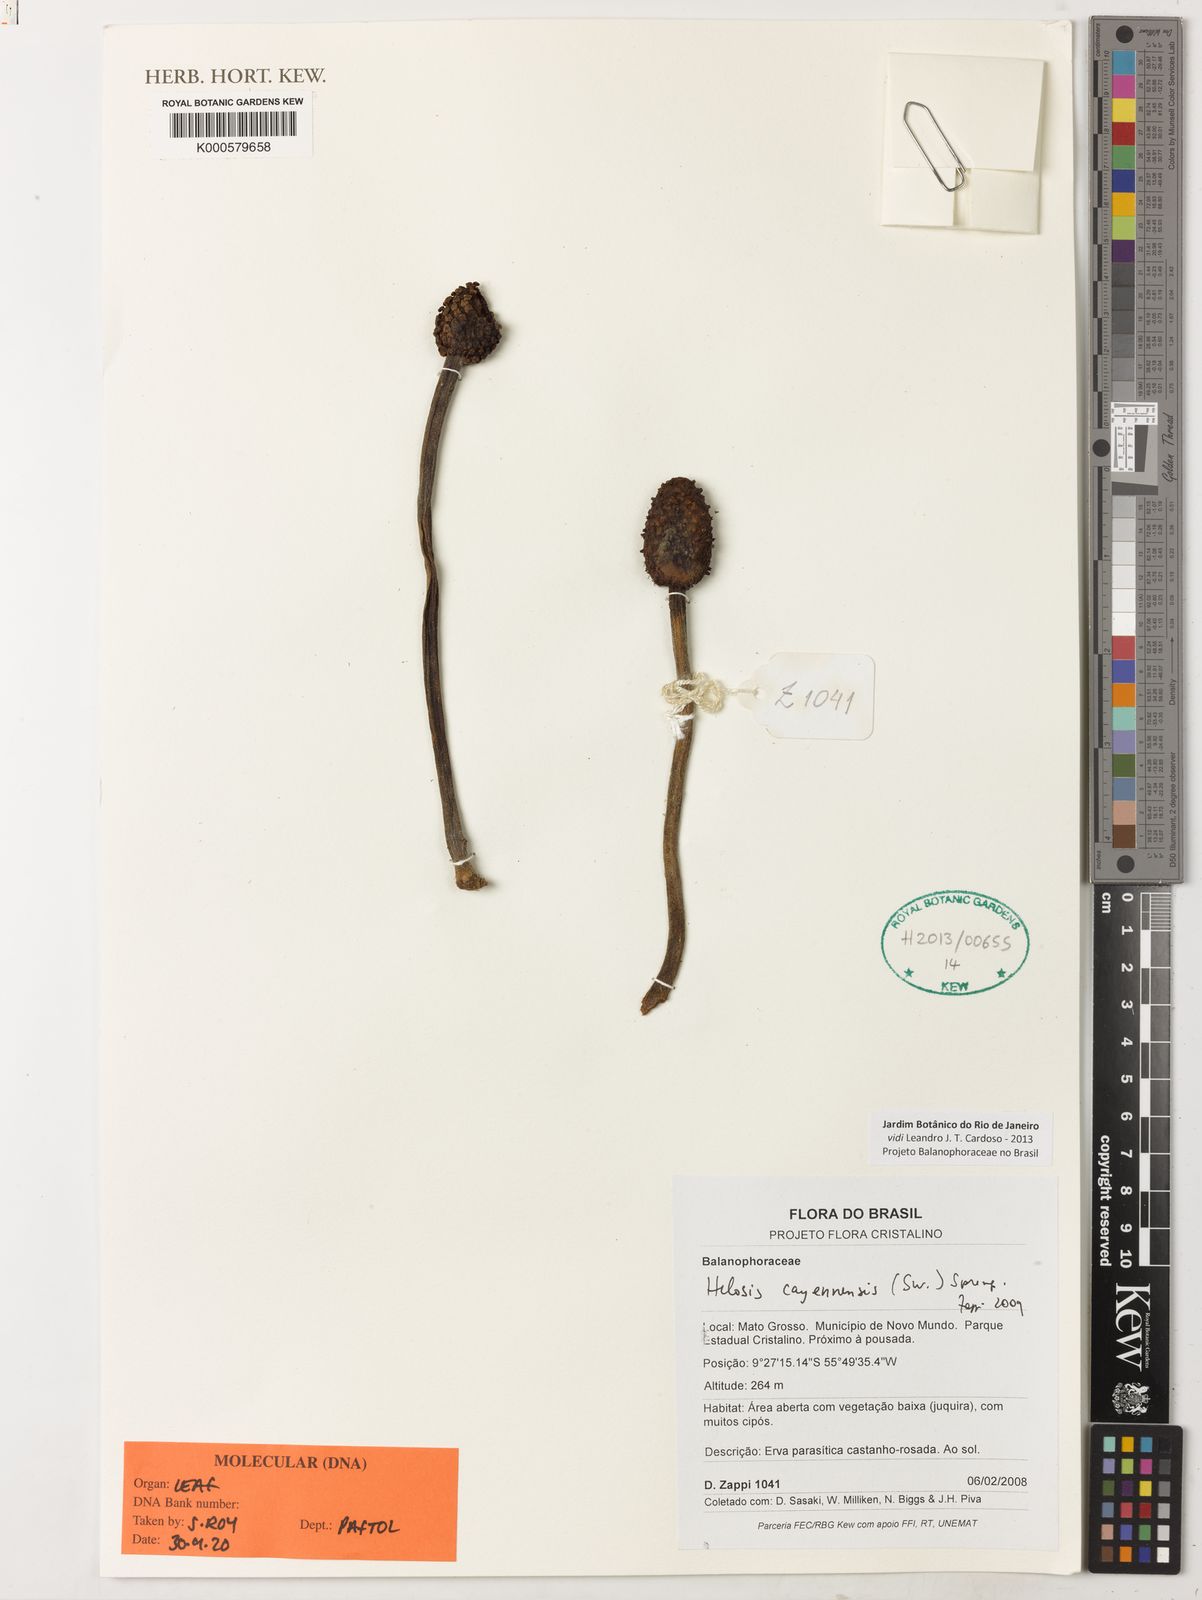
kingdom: Plantae
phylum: Tracheophyta
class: Magnoliopsida
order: Santalales
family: Balanophoraceae
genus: Helosis
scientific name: Helosis cayennensis
